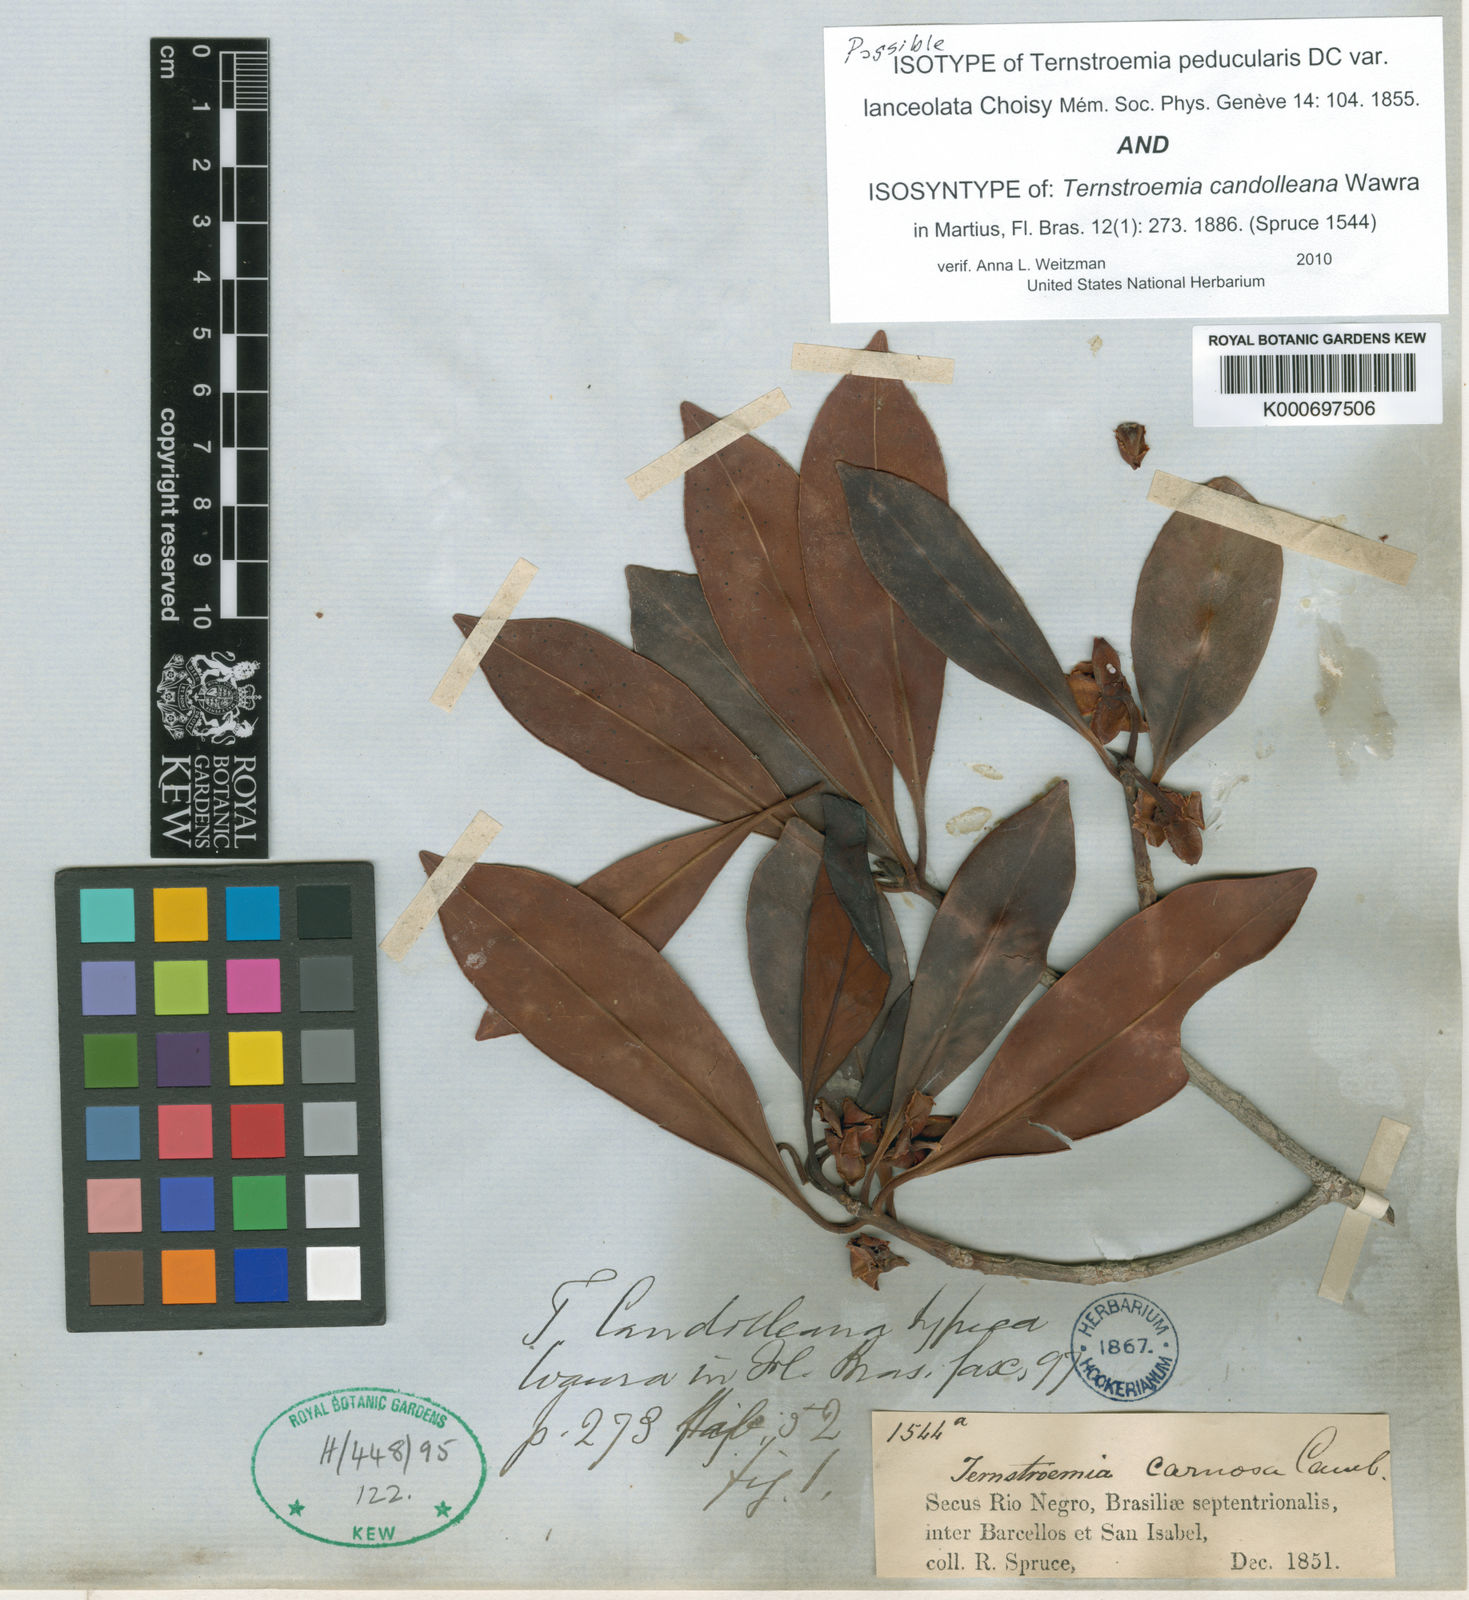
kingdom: Plantae
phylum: Tracheophyta
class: Magnoliopsida
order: Ericales
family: Pentaphylacaceae
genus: Ternstroemia
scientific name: Ternstroemia peduncularis
